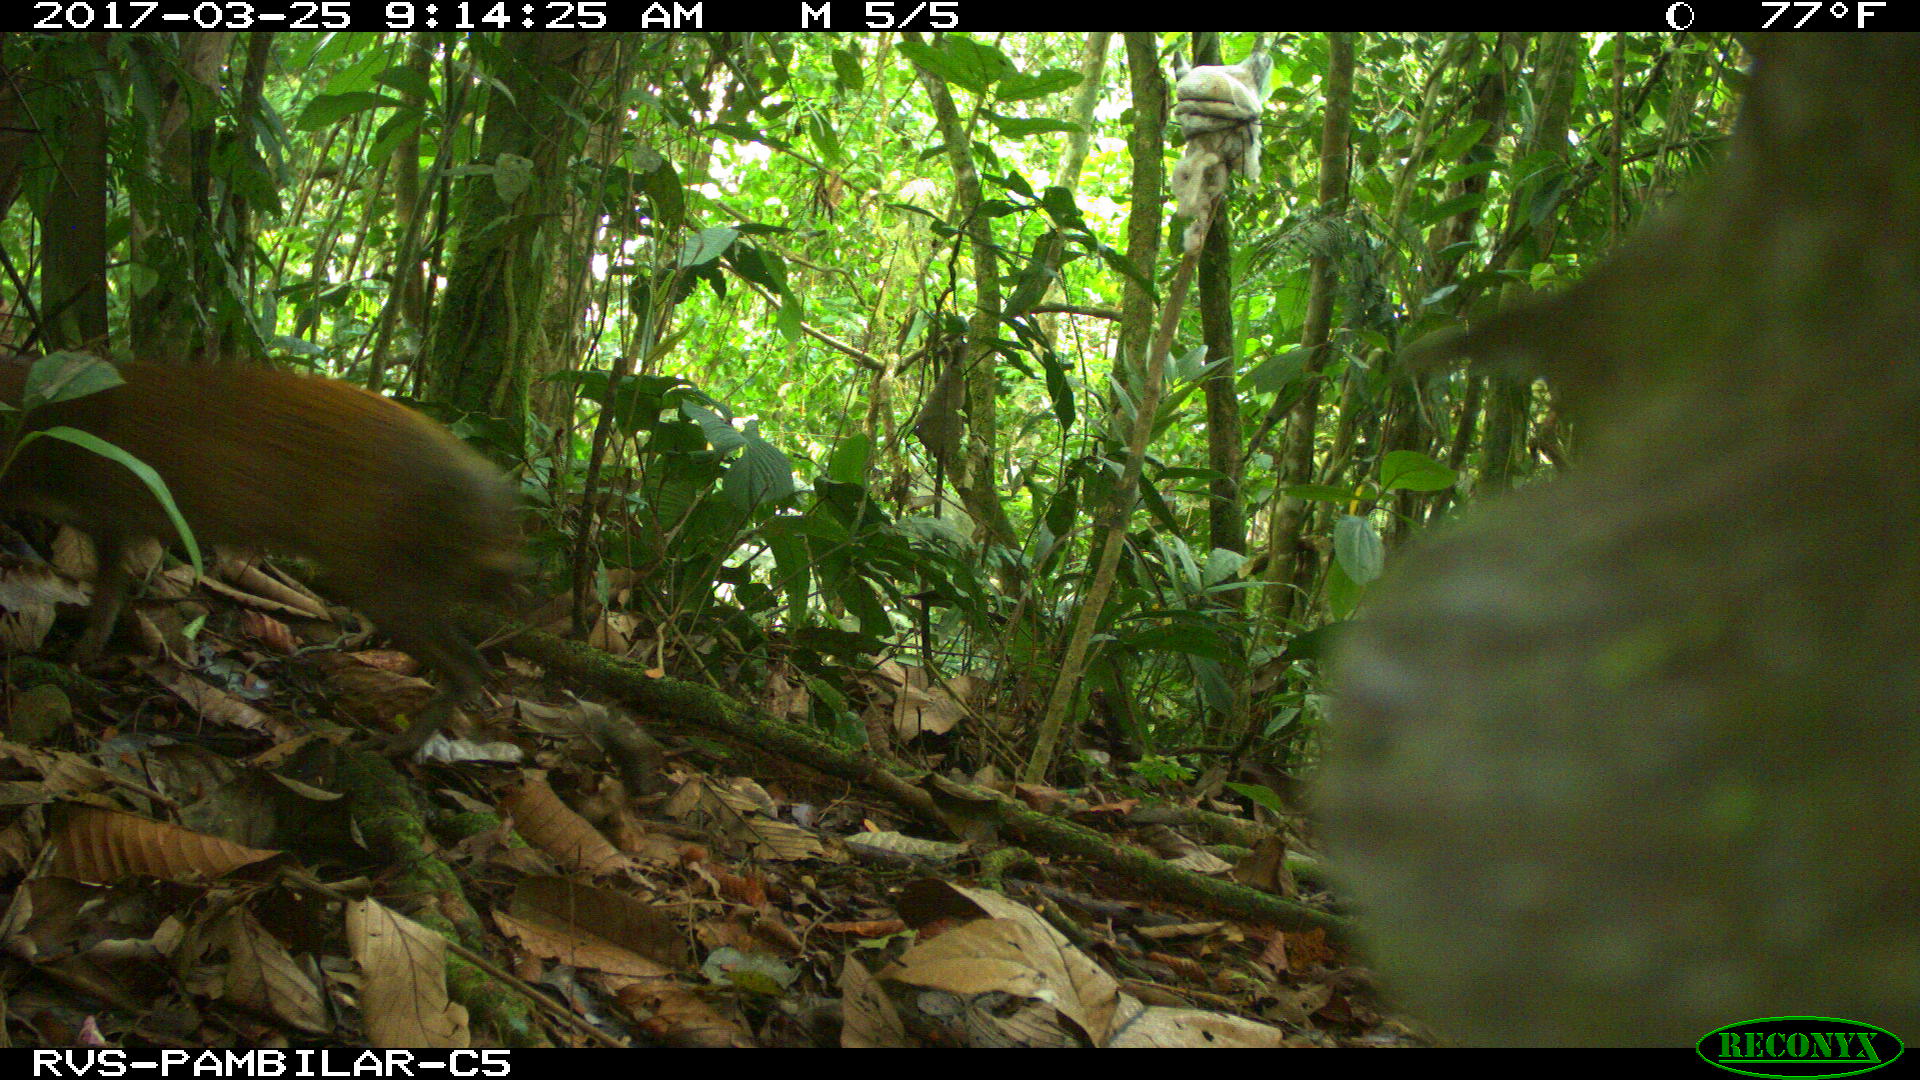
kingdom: Animalia
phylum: Chordata
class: Mammalia
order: Rodentia
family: Dasyproctidae
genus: Dasyprocta
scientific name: Dasyprocta punctata
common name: Central american agouti
